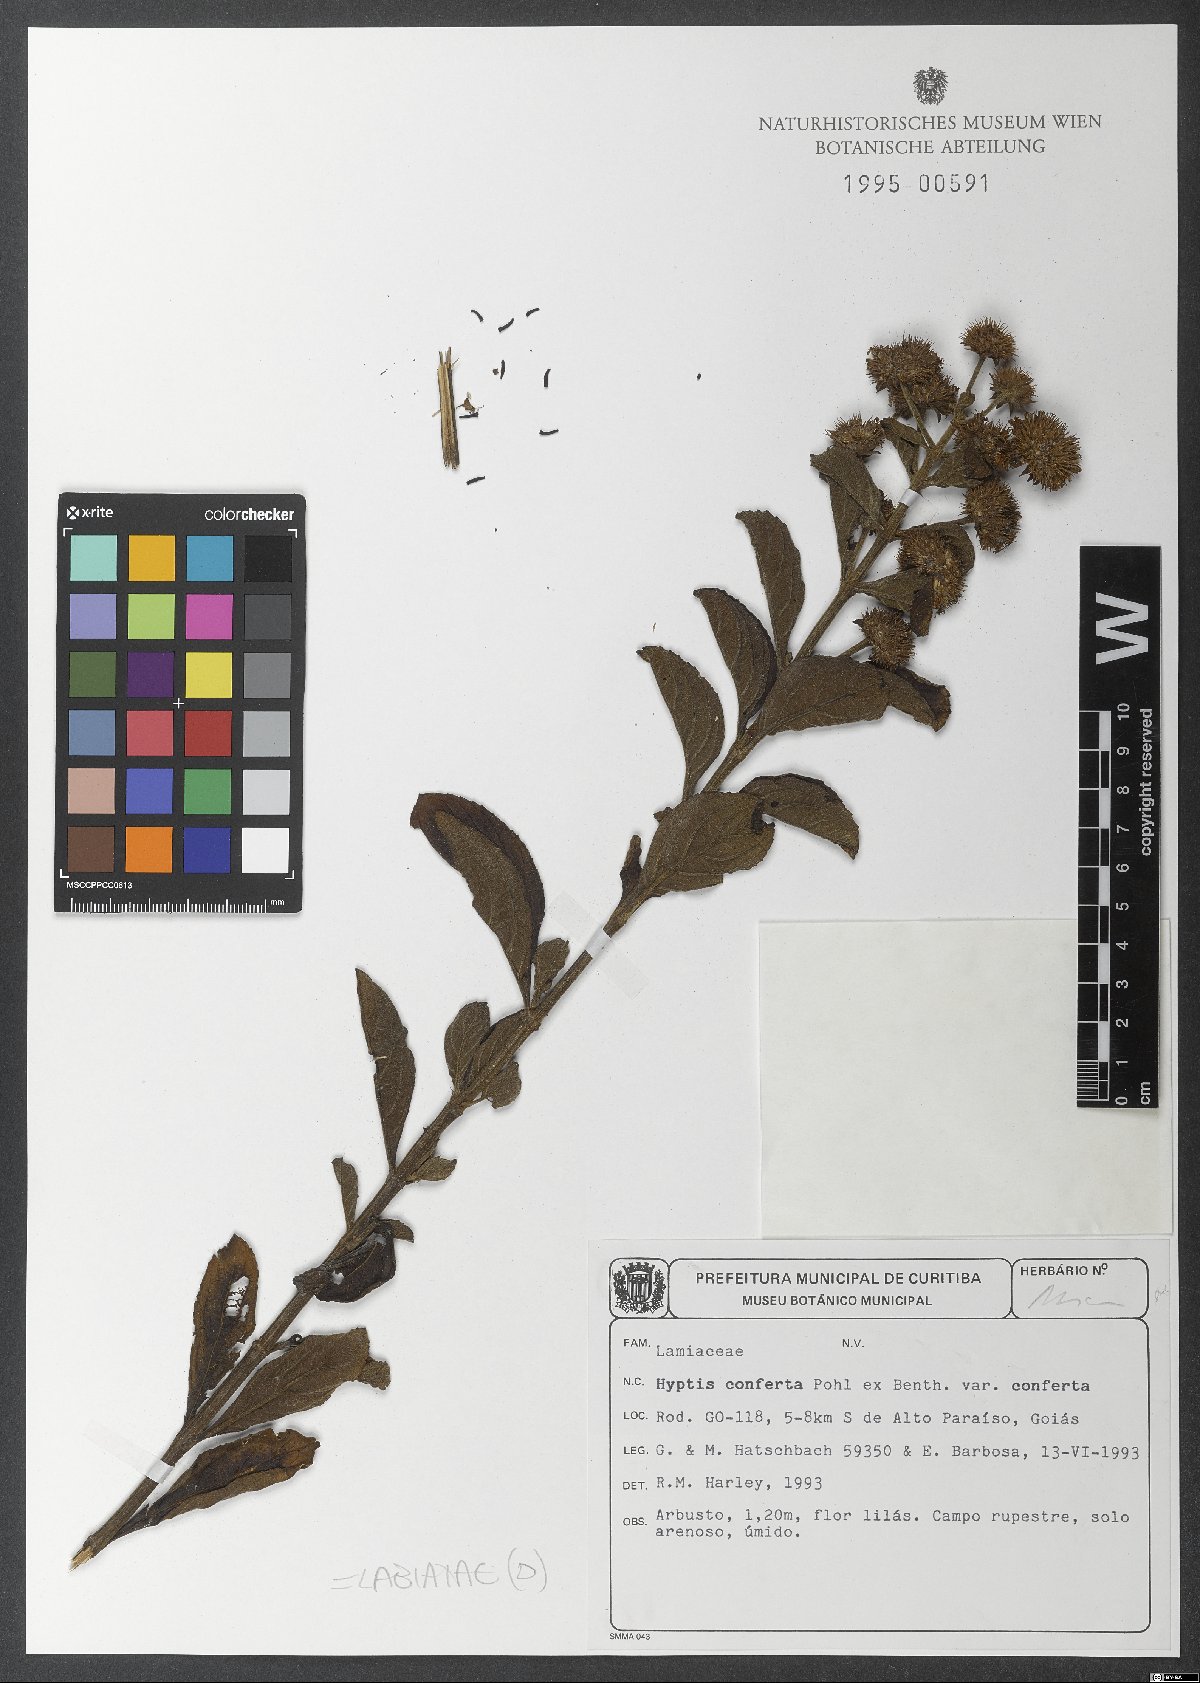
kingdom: Plantae
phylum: Tracheophyta
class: Magnoliopsida
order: Lamiales
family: Lamiaceae
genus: Hyptis
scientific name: Hyptis conferta
